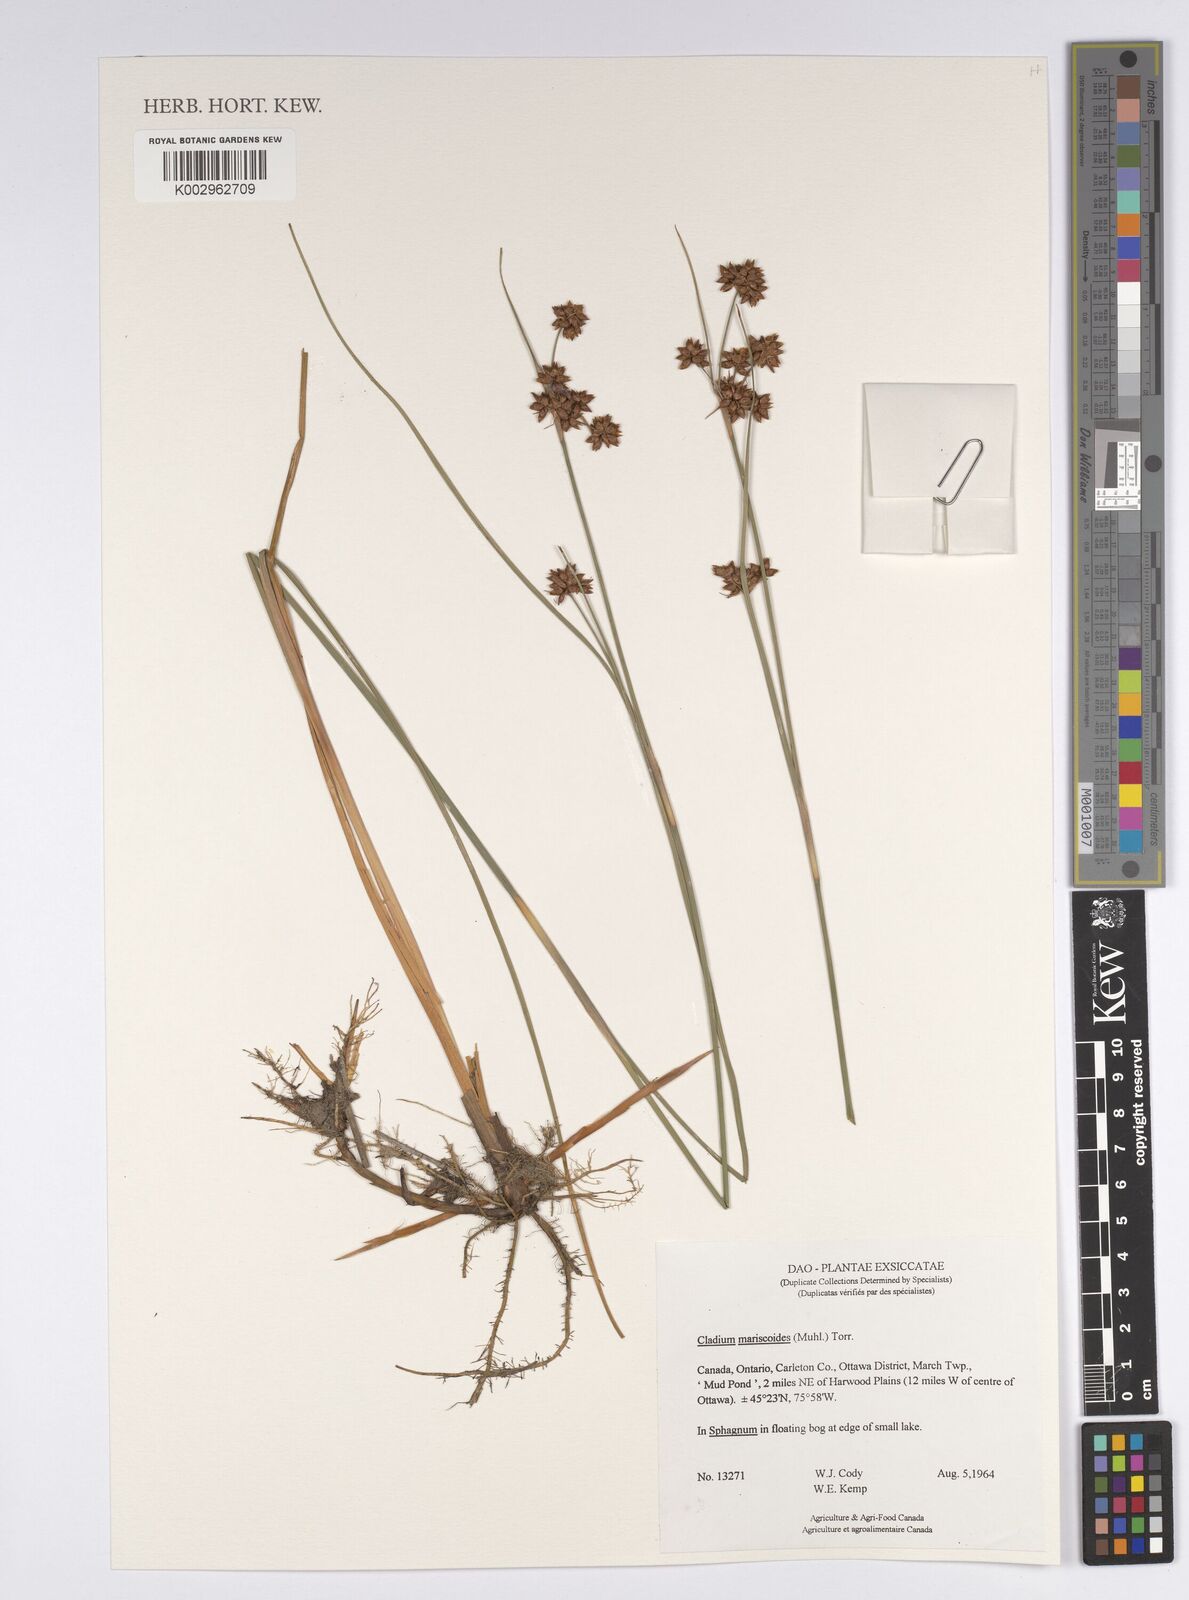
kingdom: Plantae
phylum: Tracheophyta
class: Liliopsida
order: Poales
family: Cyperaceae
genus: Cladium
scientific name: Cladium mariscoides
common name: Smooth sawgrass
